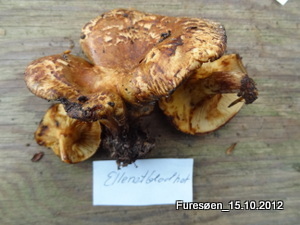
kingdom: Fungi
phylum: Basidiomycota
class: Agaricomycetes
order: Boletales
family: Paxillaceae
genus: Paxillus
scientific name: Paxillus rubicundulus
